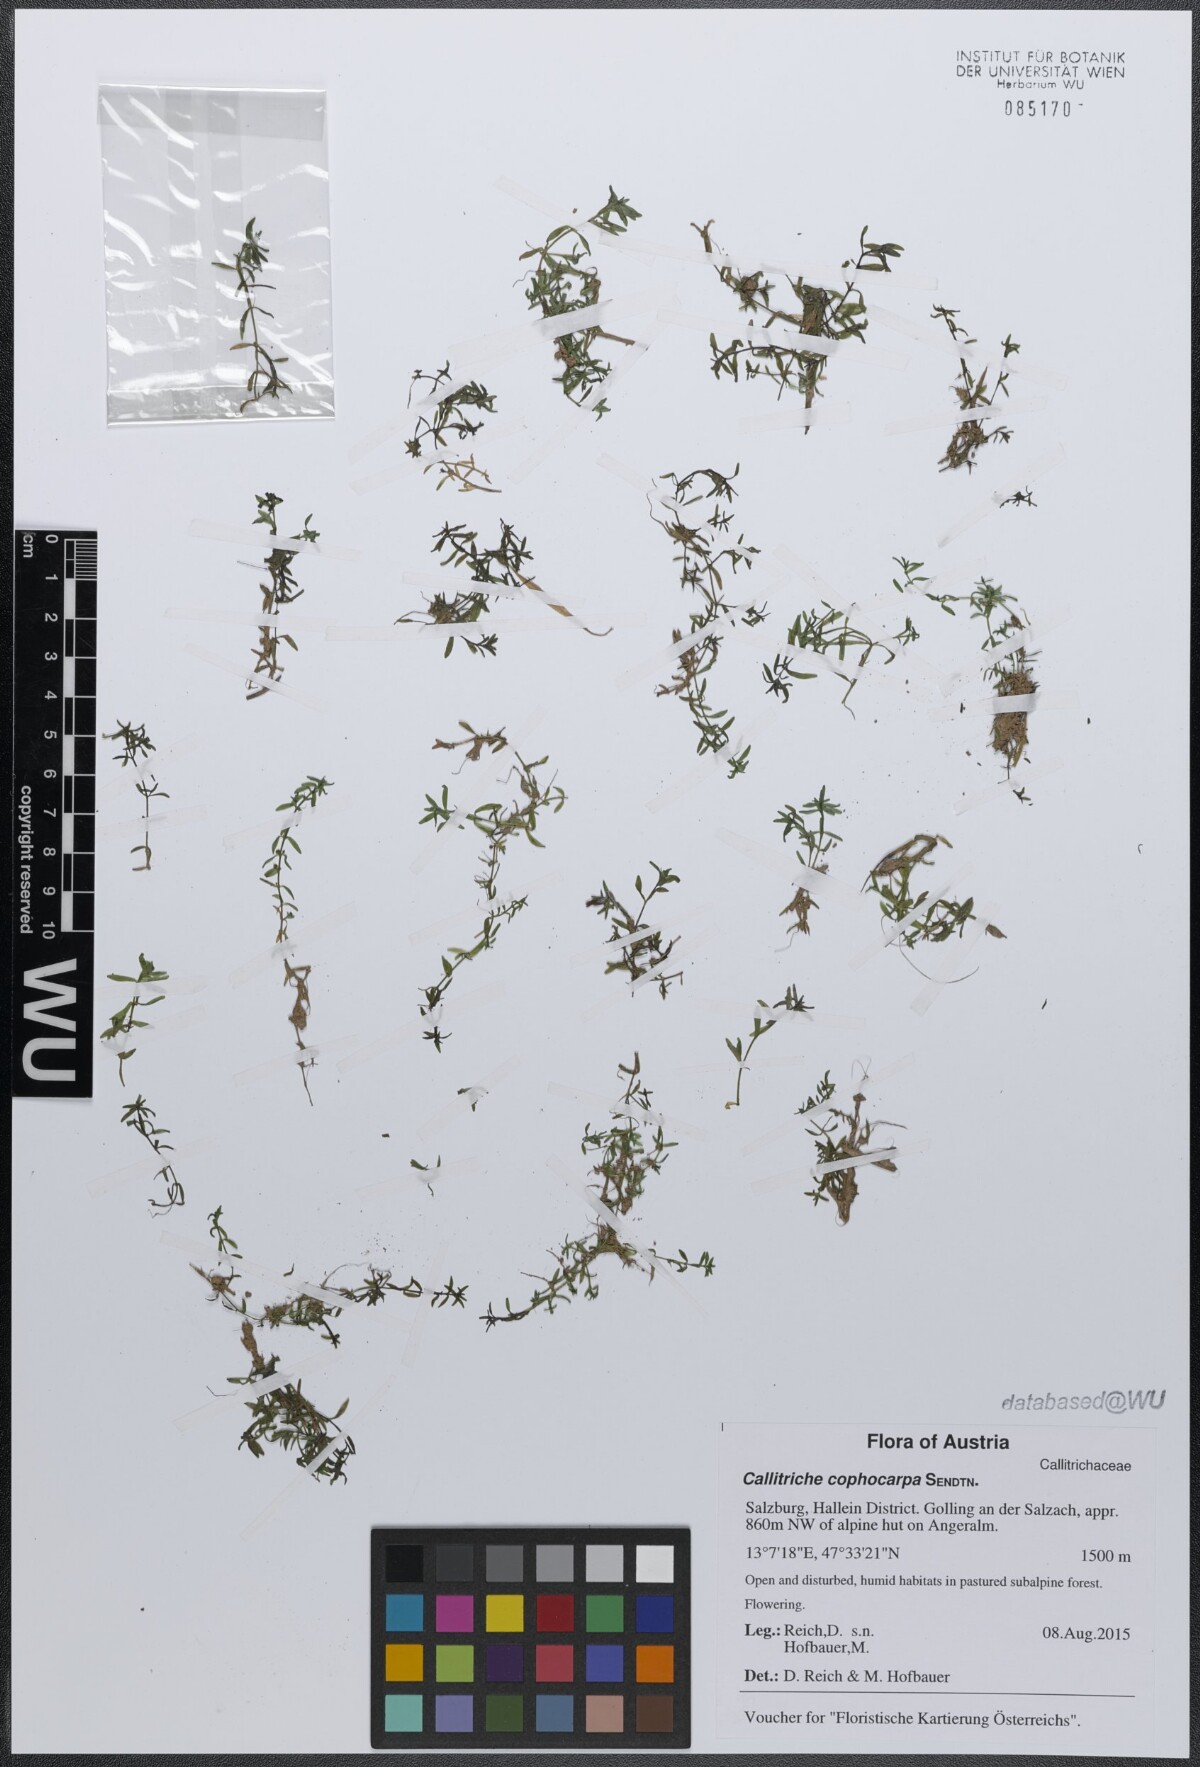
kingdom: Plantae
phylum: Tracheophyta
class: Magnoliopsida
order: Lamiales
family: Plantaginaceae
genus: Callitriche
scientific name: Callitriche cophocarpa
